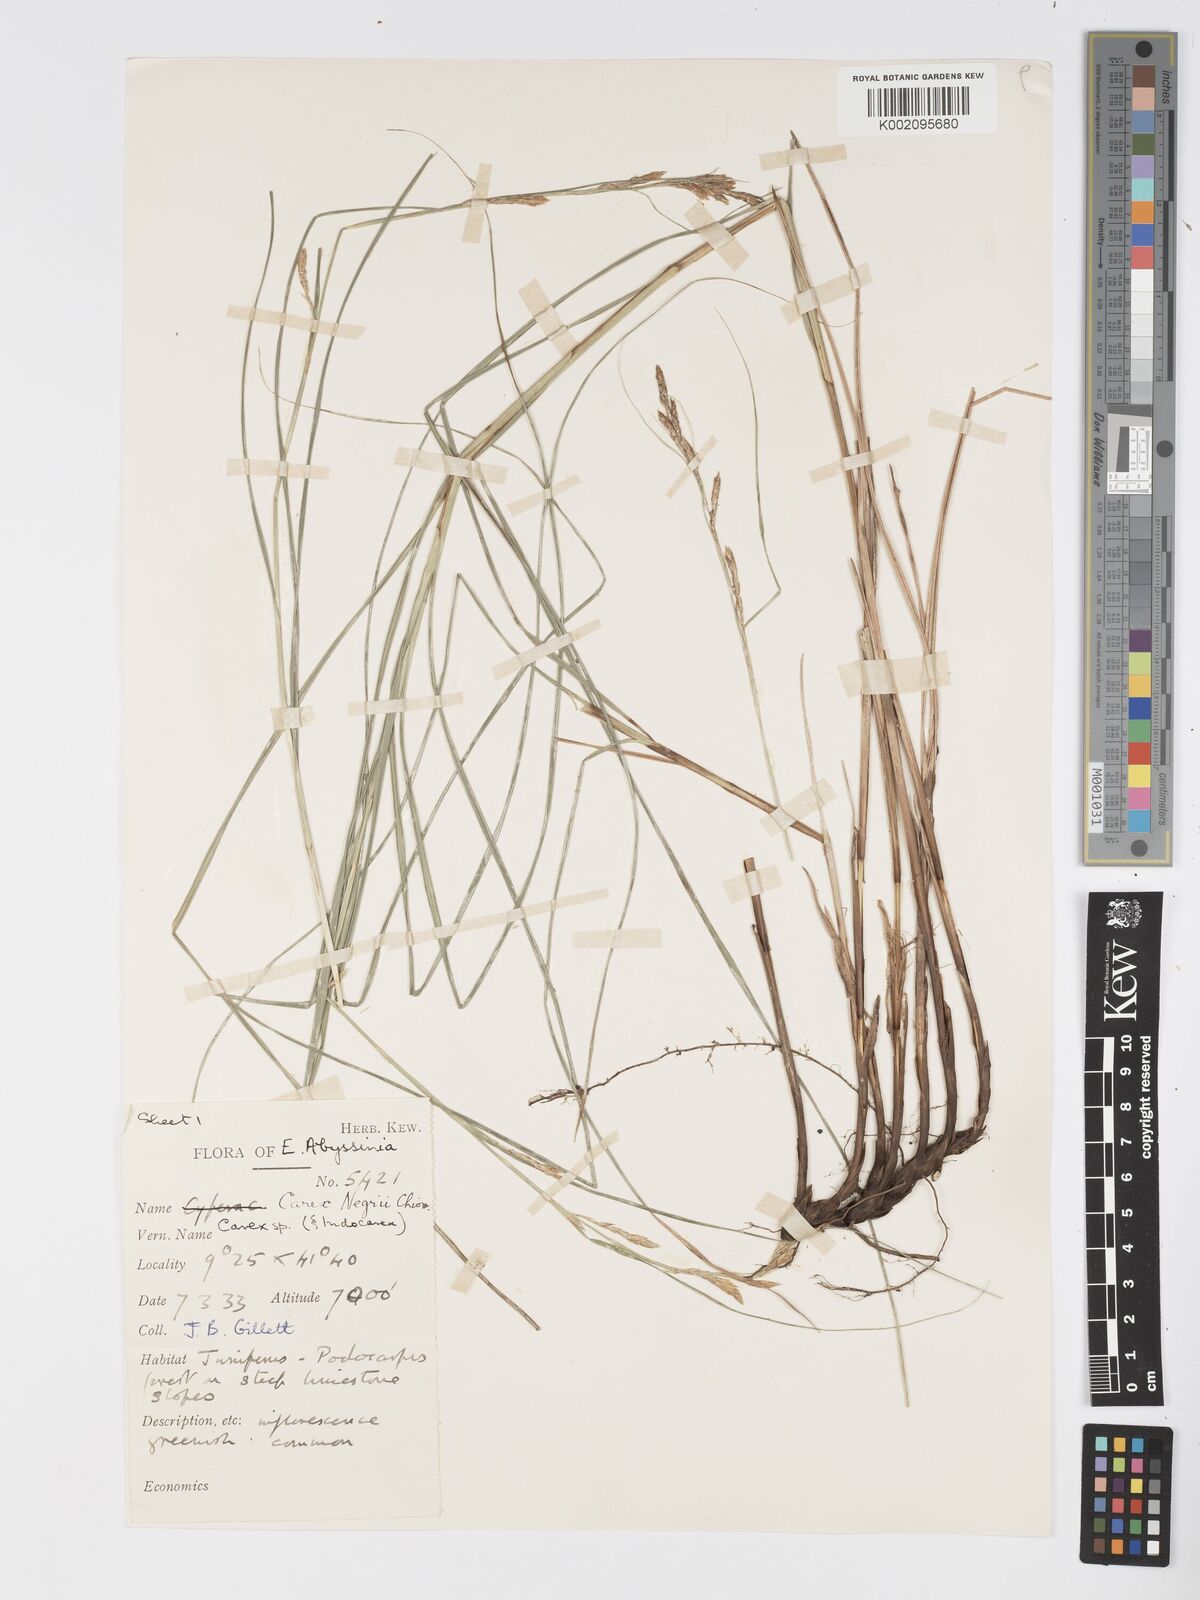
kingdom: Plantae
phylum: Tracheophyta
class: Liliopsida
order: Poales
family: Cyperaceae
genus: Carex
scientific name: Carex negrii
